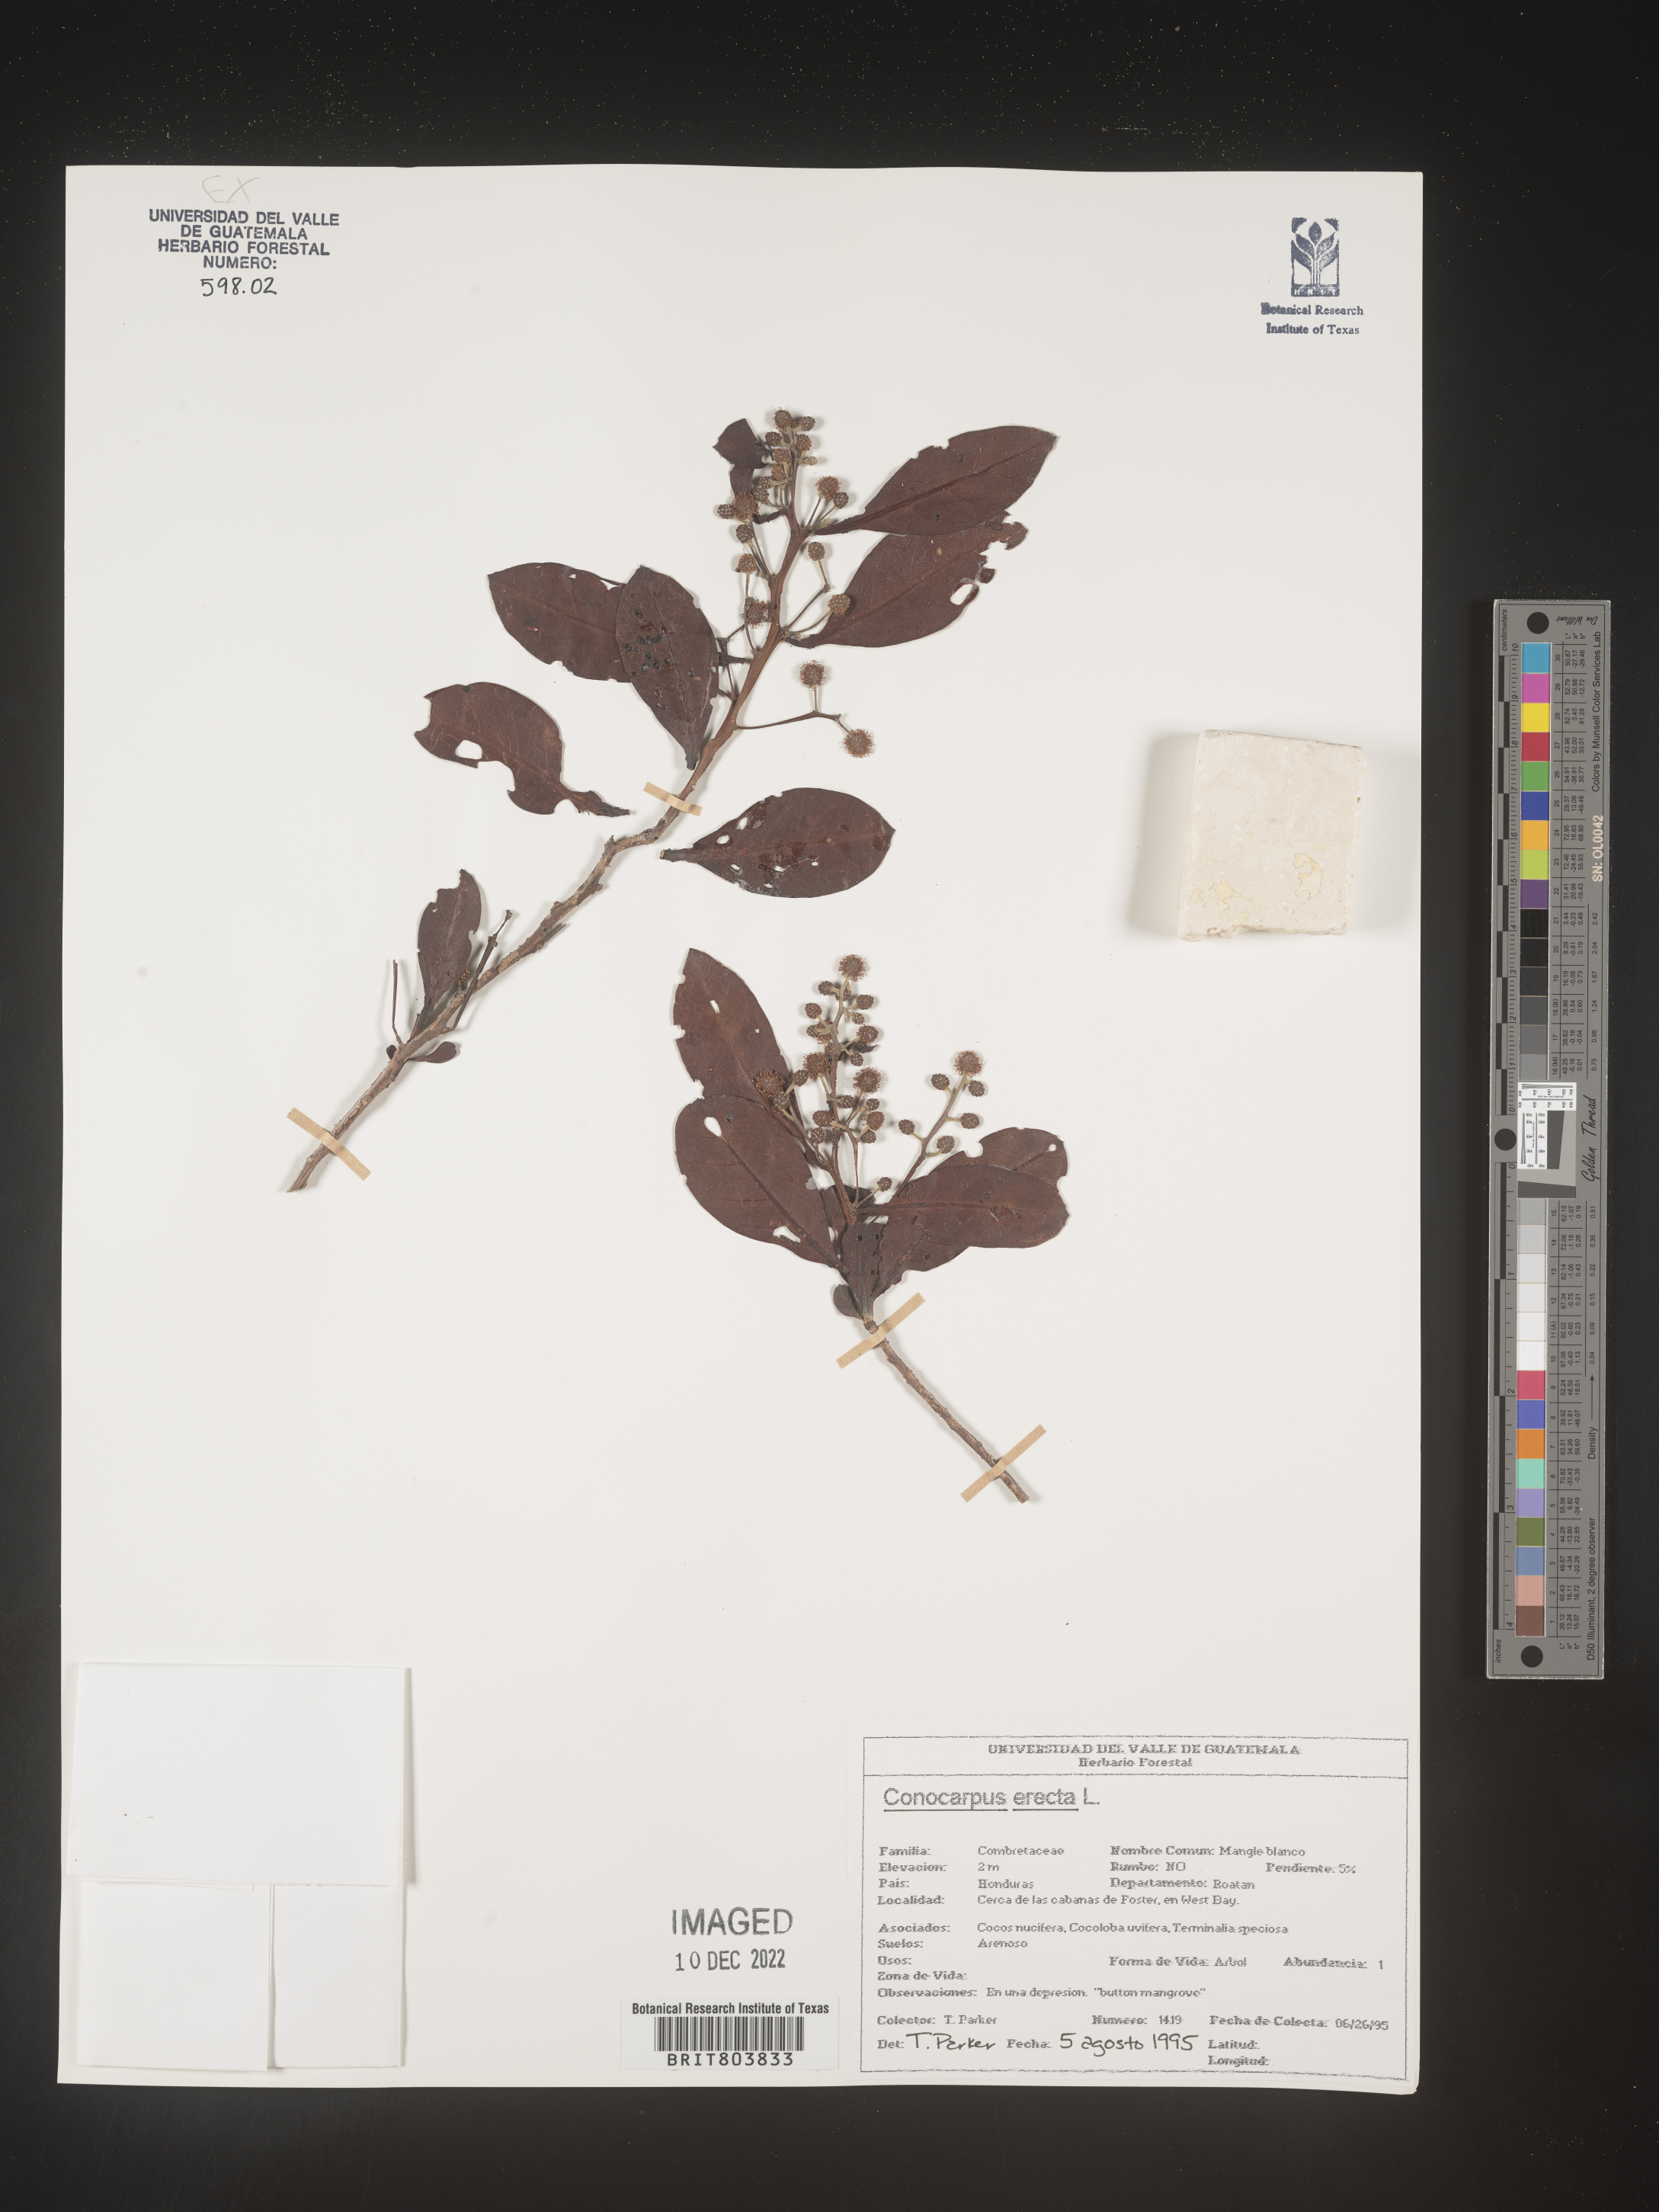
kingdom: Plantae
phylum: Tracheophyta
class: Magnoliopsida
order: Myrtales
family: Combretaceae
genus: Conocarpus
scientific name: Conocarpus
